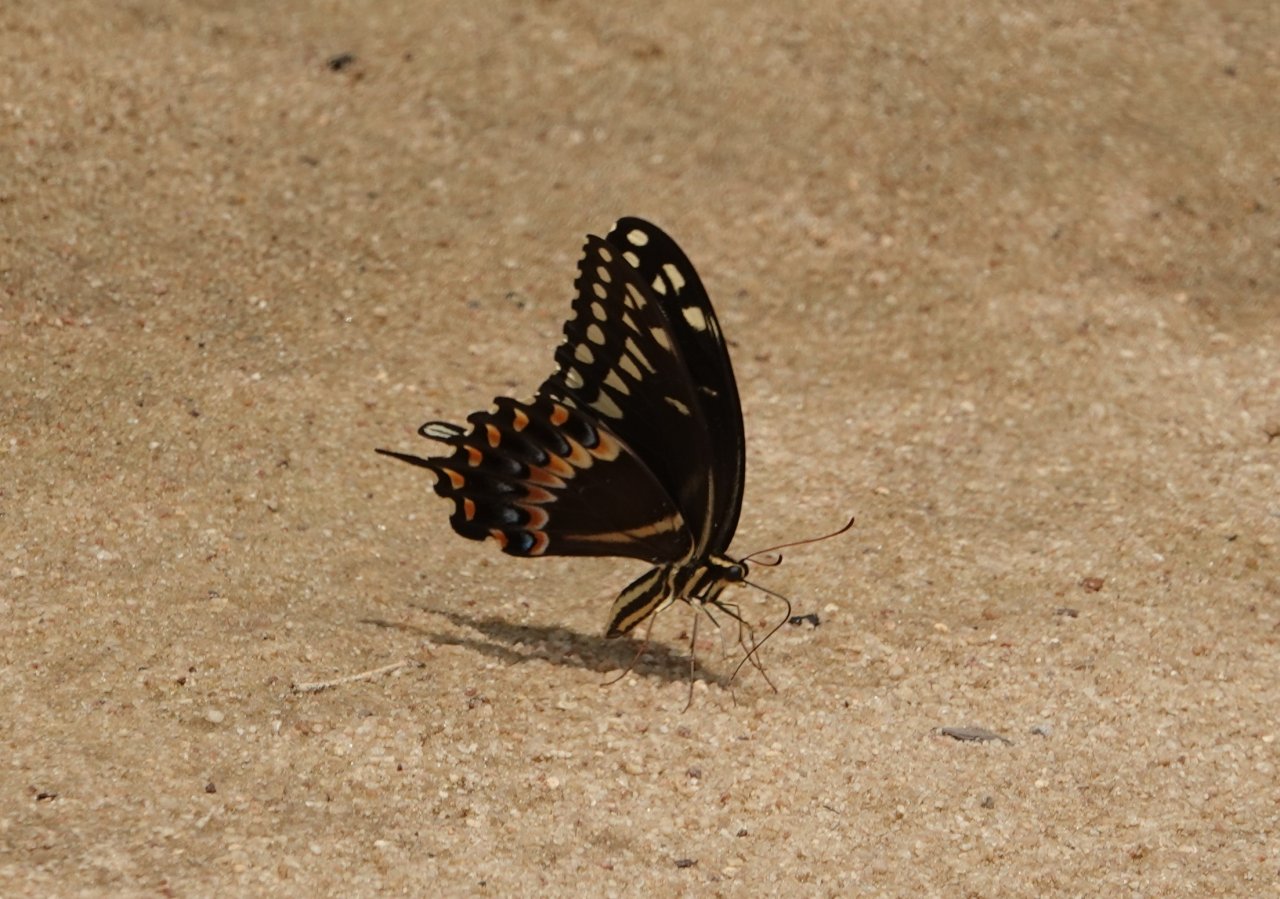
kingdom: Animalia
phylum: Arthropoda
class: Insecta
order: Lepidoptera
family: Papilionidae
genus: Pterourus
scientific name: Pterourus palamedes
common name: Palamedes Swallowtail
